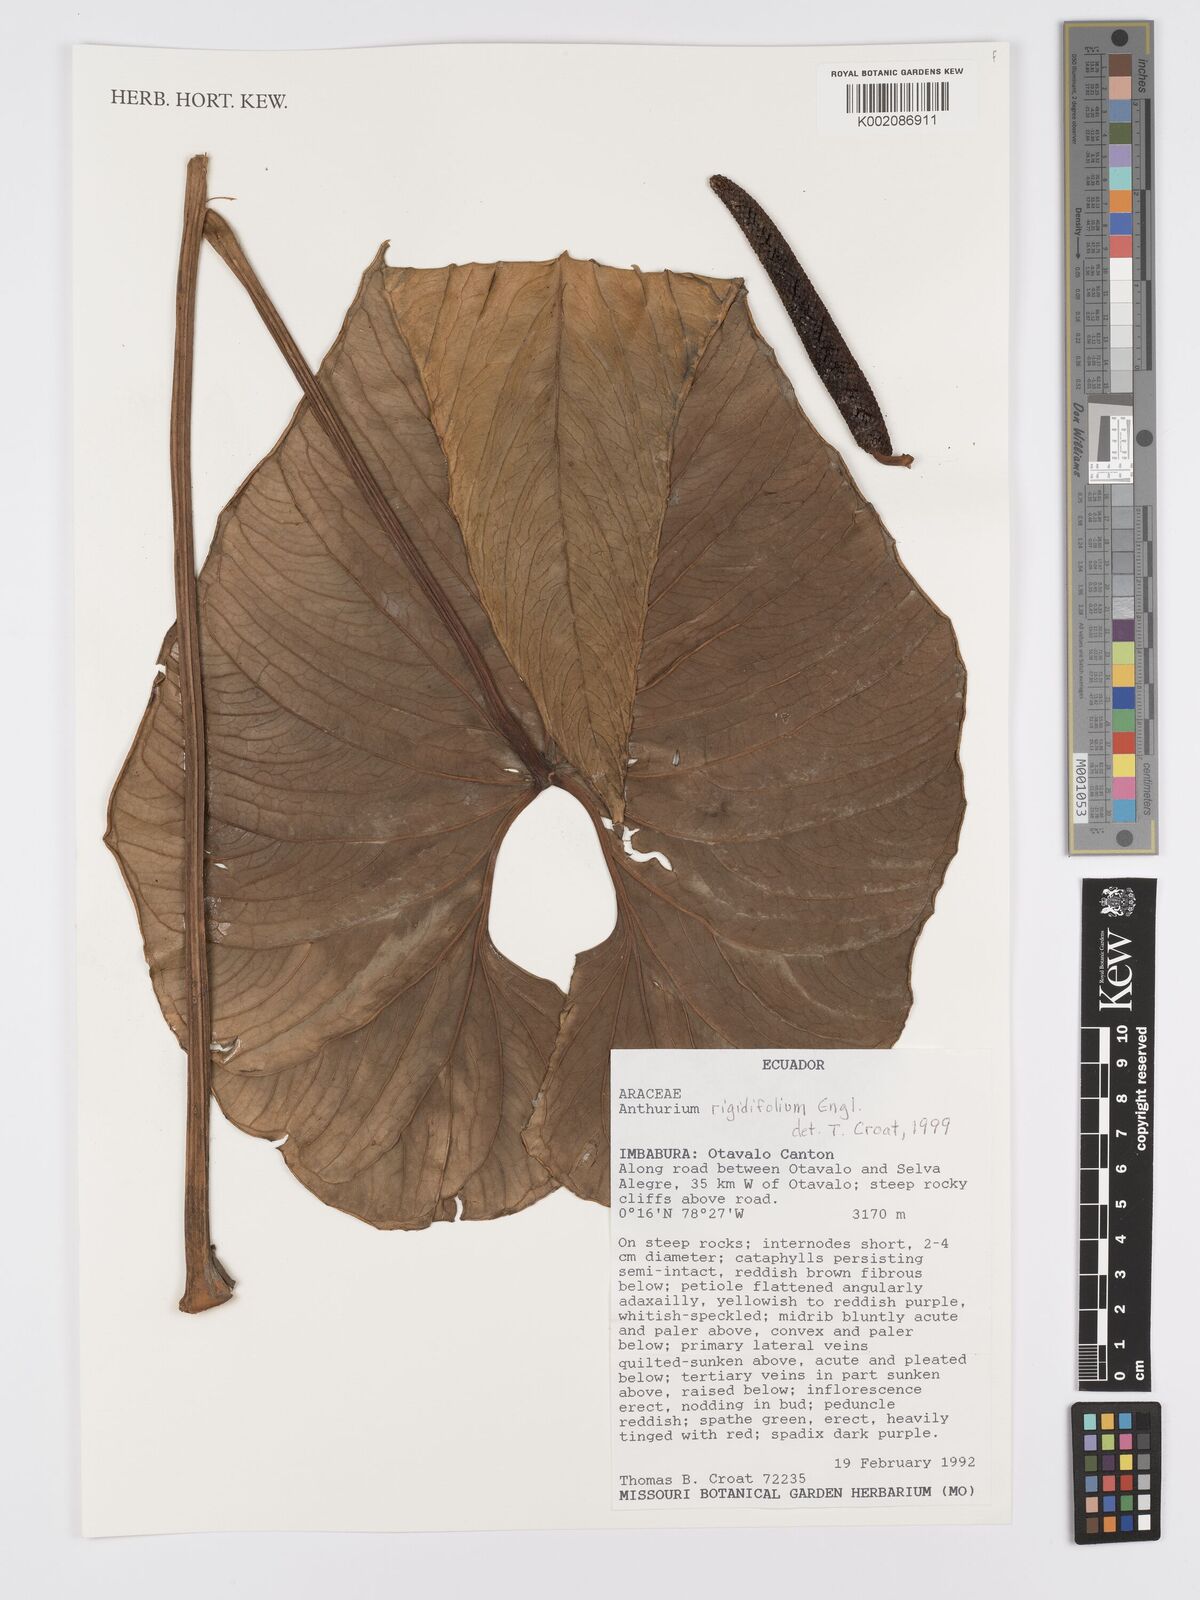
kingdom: Plantae
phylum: Tracheophyta
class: Liliopsida
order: Alismatales
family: Araceae
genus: Anthurium
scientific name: Anthurium rigidifolium
